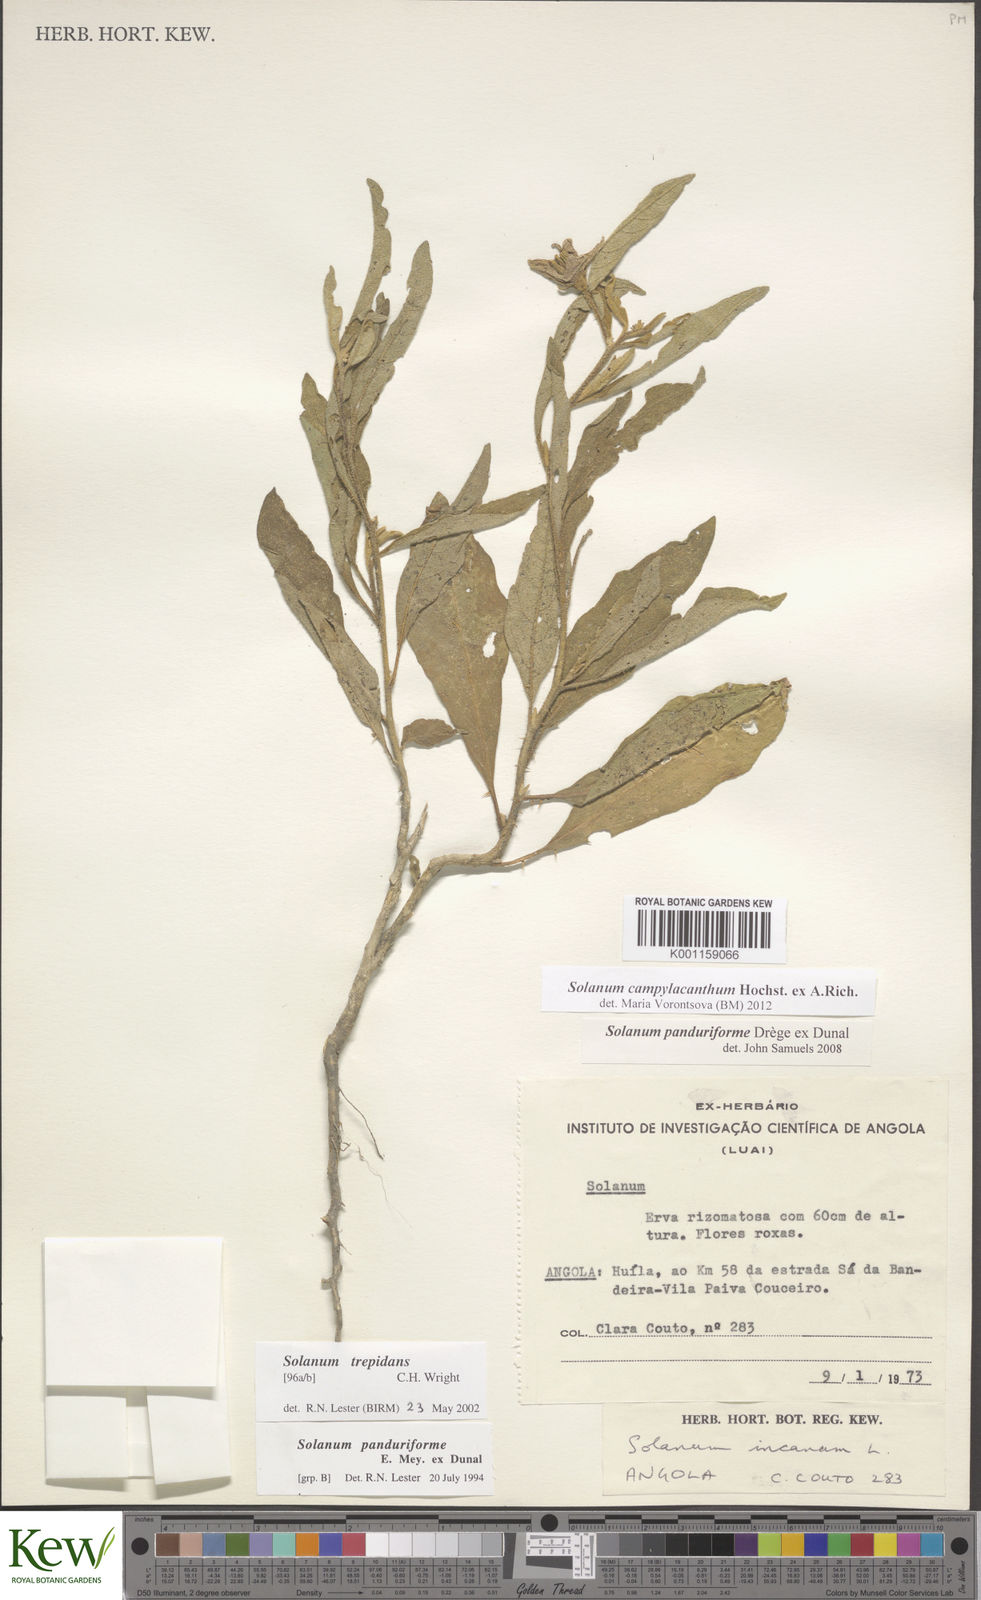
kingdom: Plantae
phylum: Tracheophyta
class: Magnoliopsida
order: Solanales
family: Solanaceae
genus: Solanum
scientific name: Solanum campylacanthum
